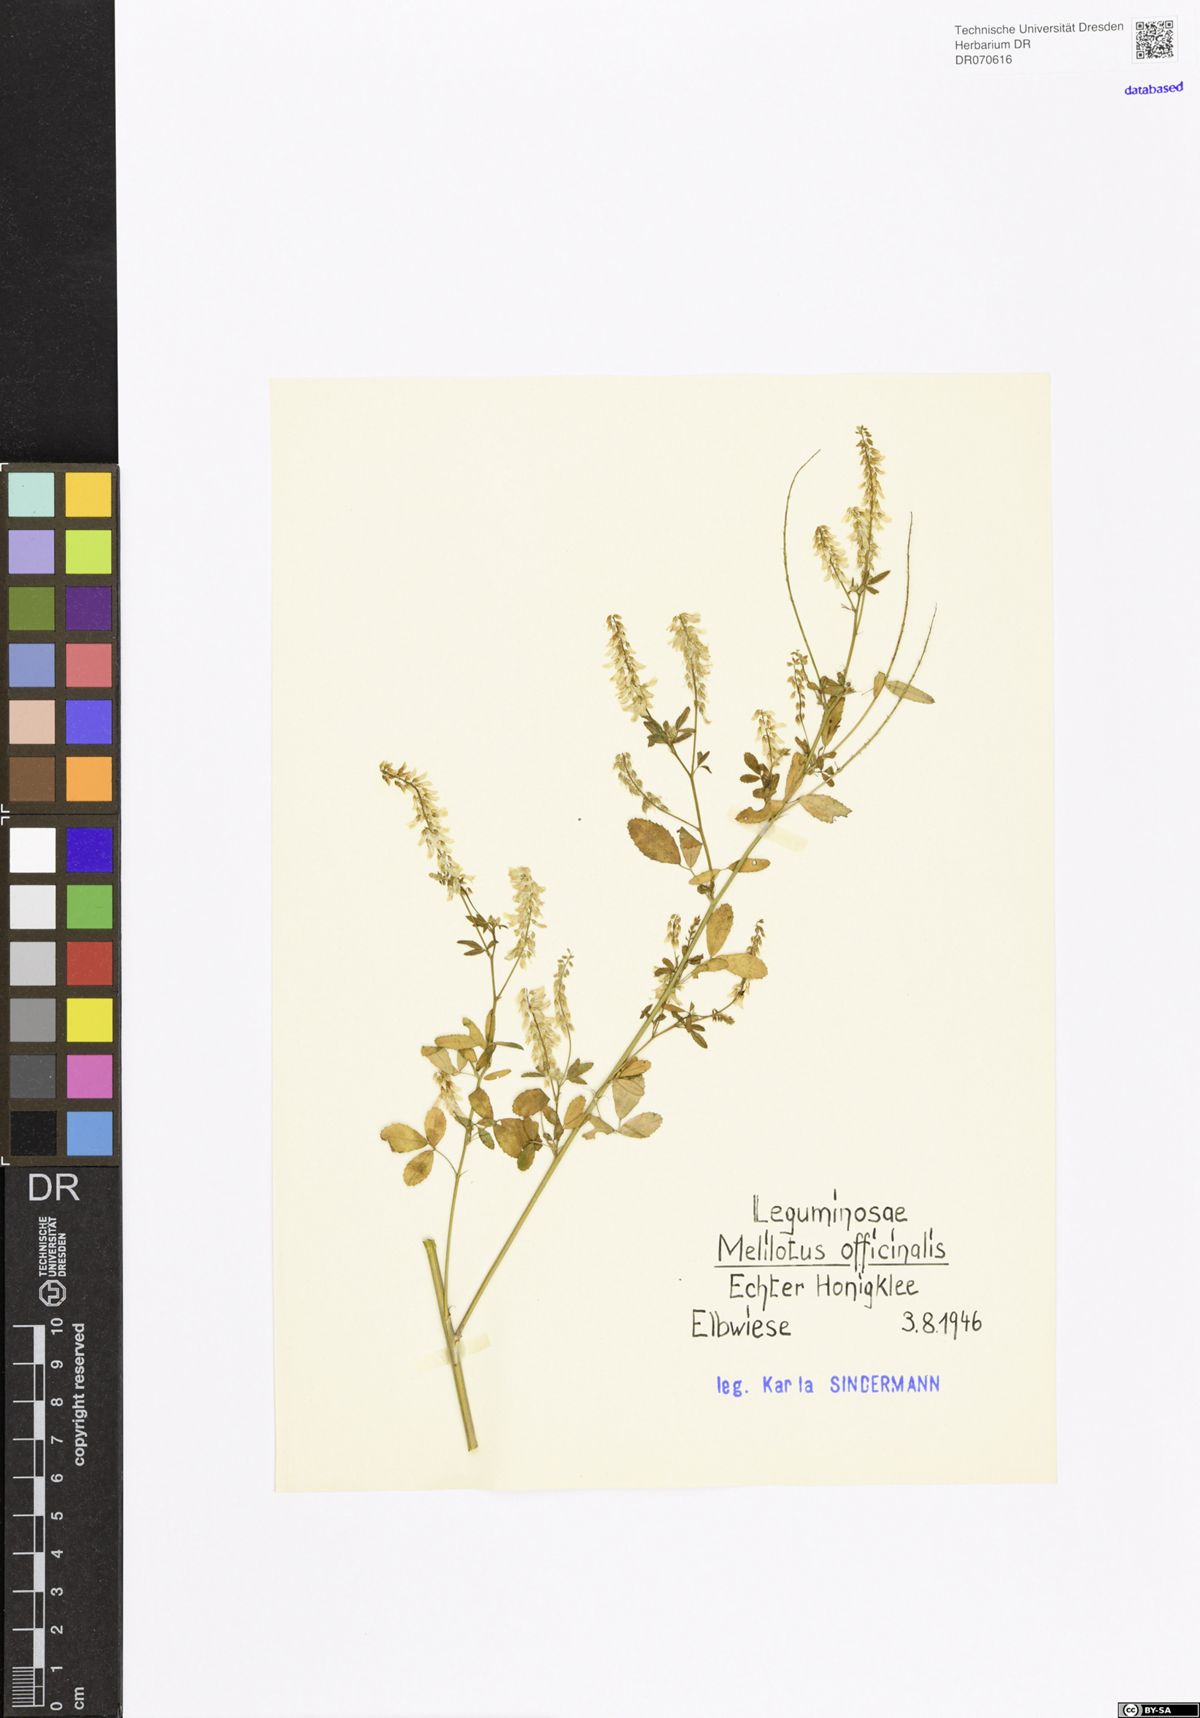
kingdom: Plantae
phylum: Tracheophyta
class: Magnoliopsida
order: Fabales
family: Fabaceae
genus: Melilotus
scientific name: Melilotus officinalis
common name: Sweetclover
